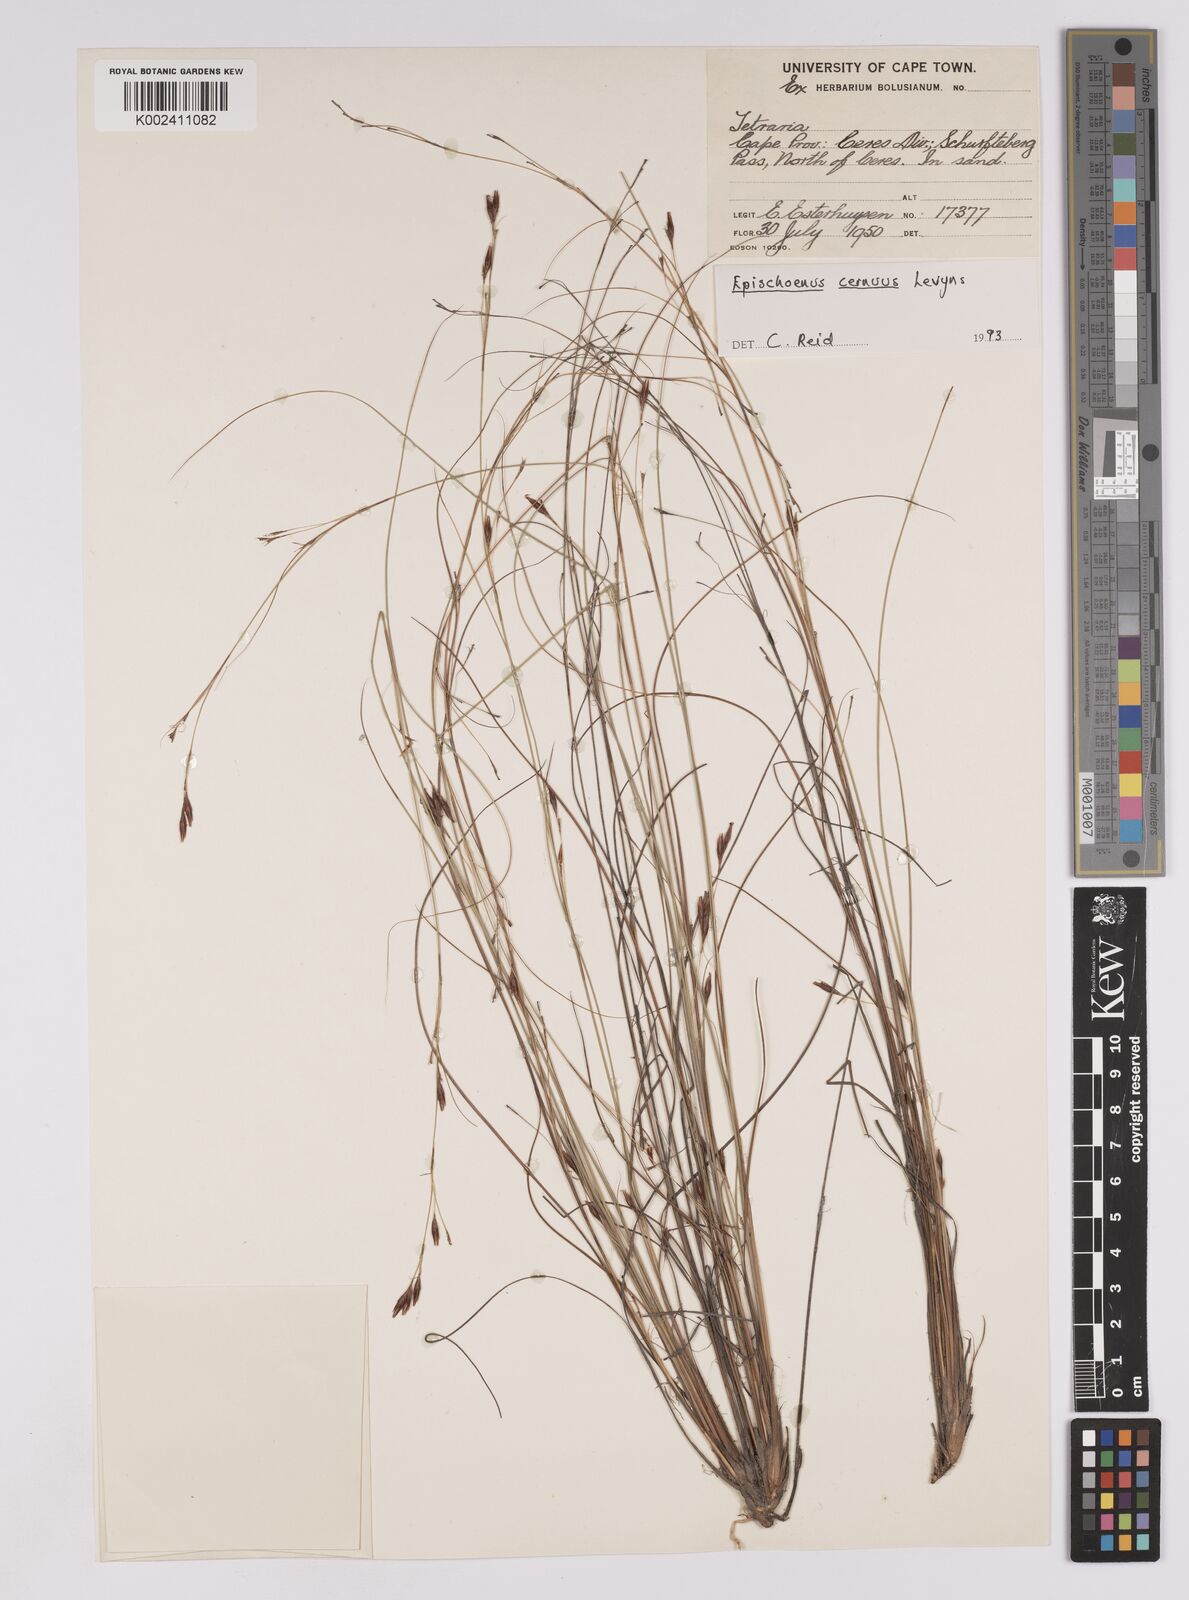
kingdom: Plantae
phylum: Tracheophyta
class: Liliopsida
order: Poales
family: Cyperaceae
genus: Tetraria
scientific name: Tetraria cernua
